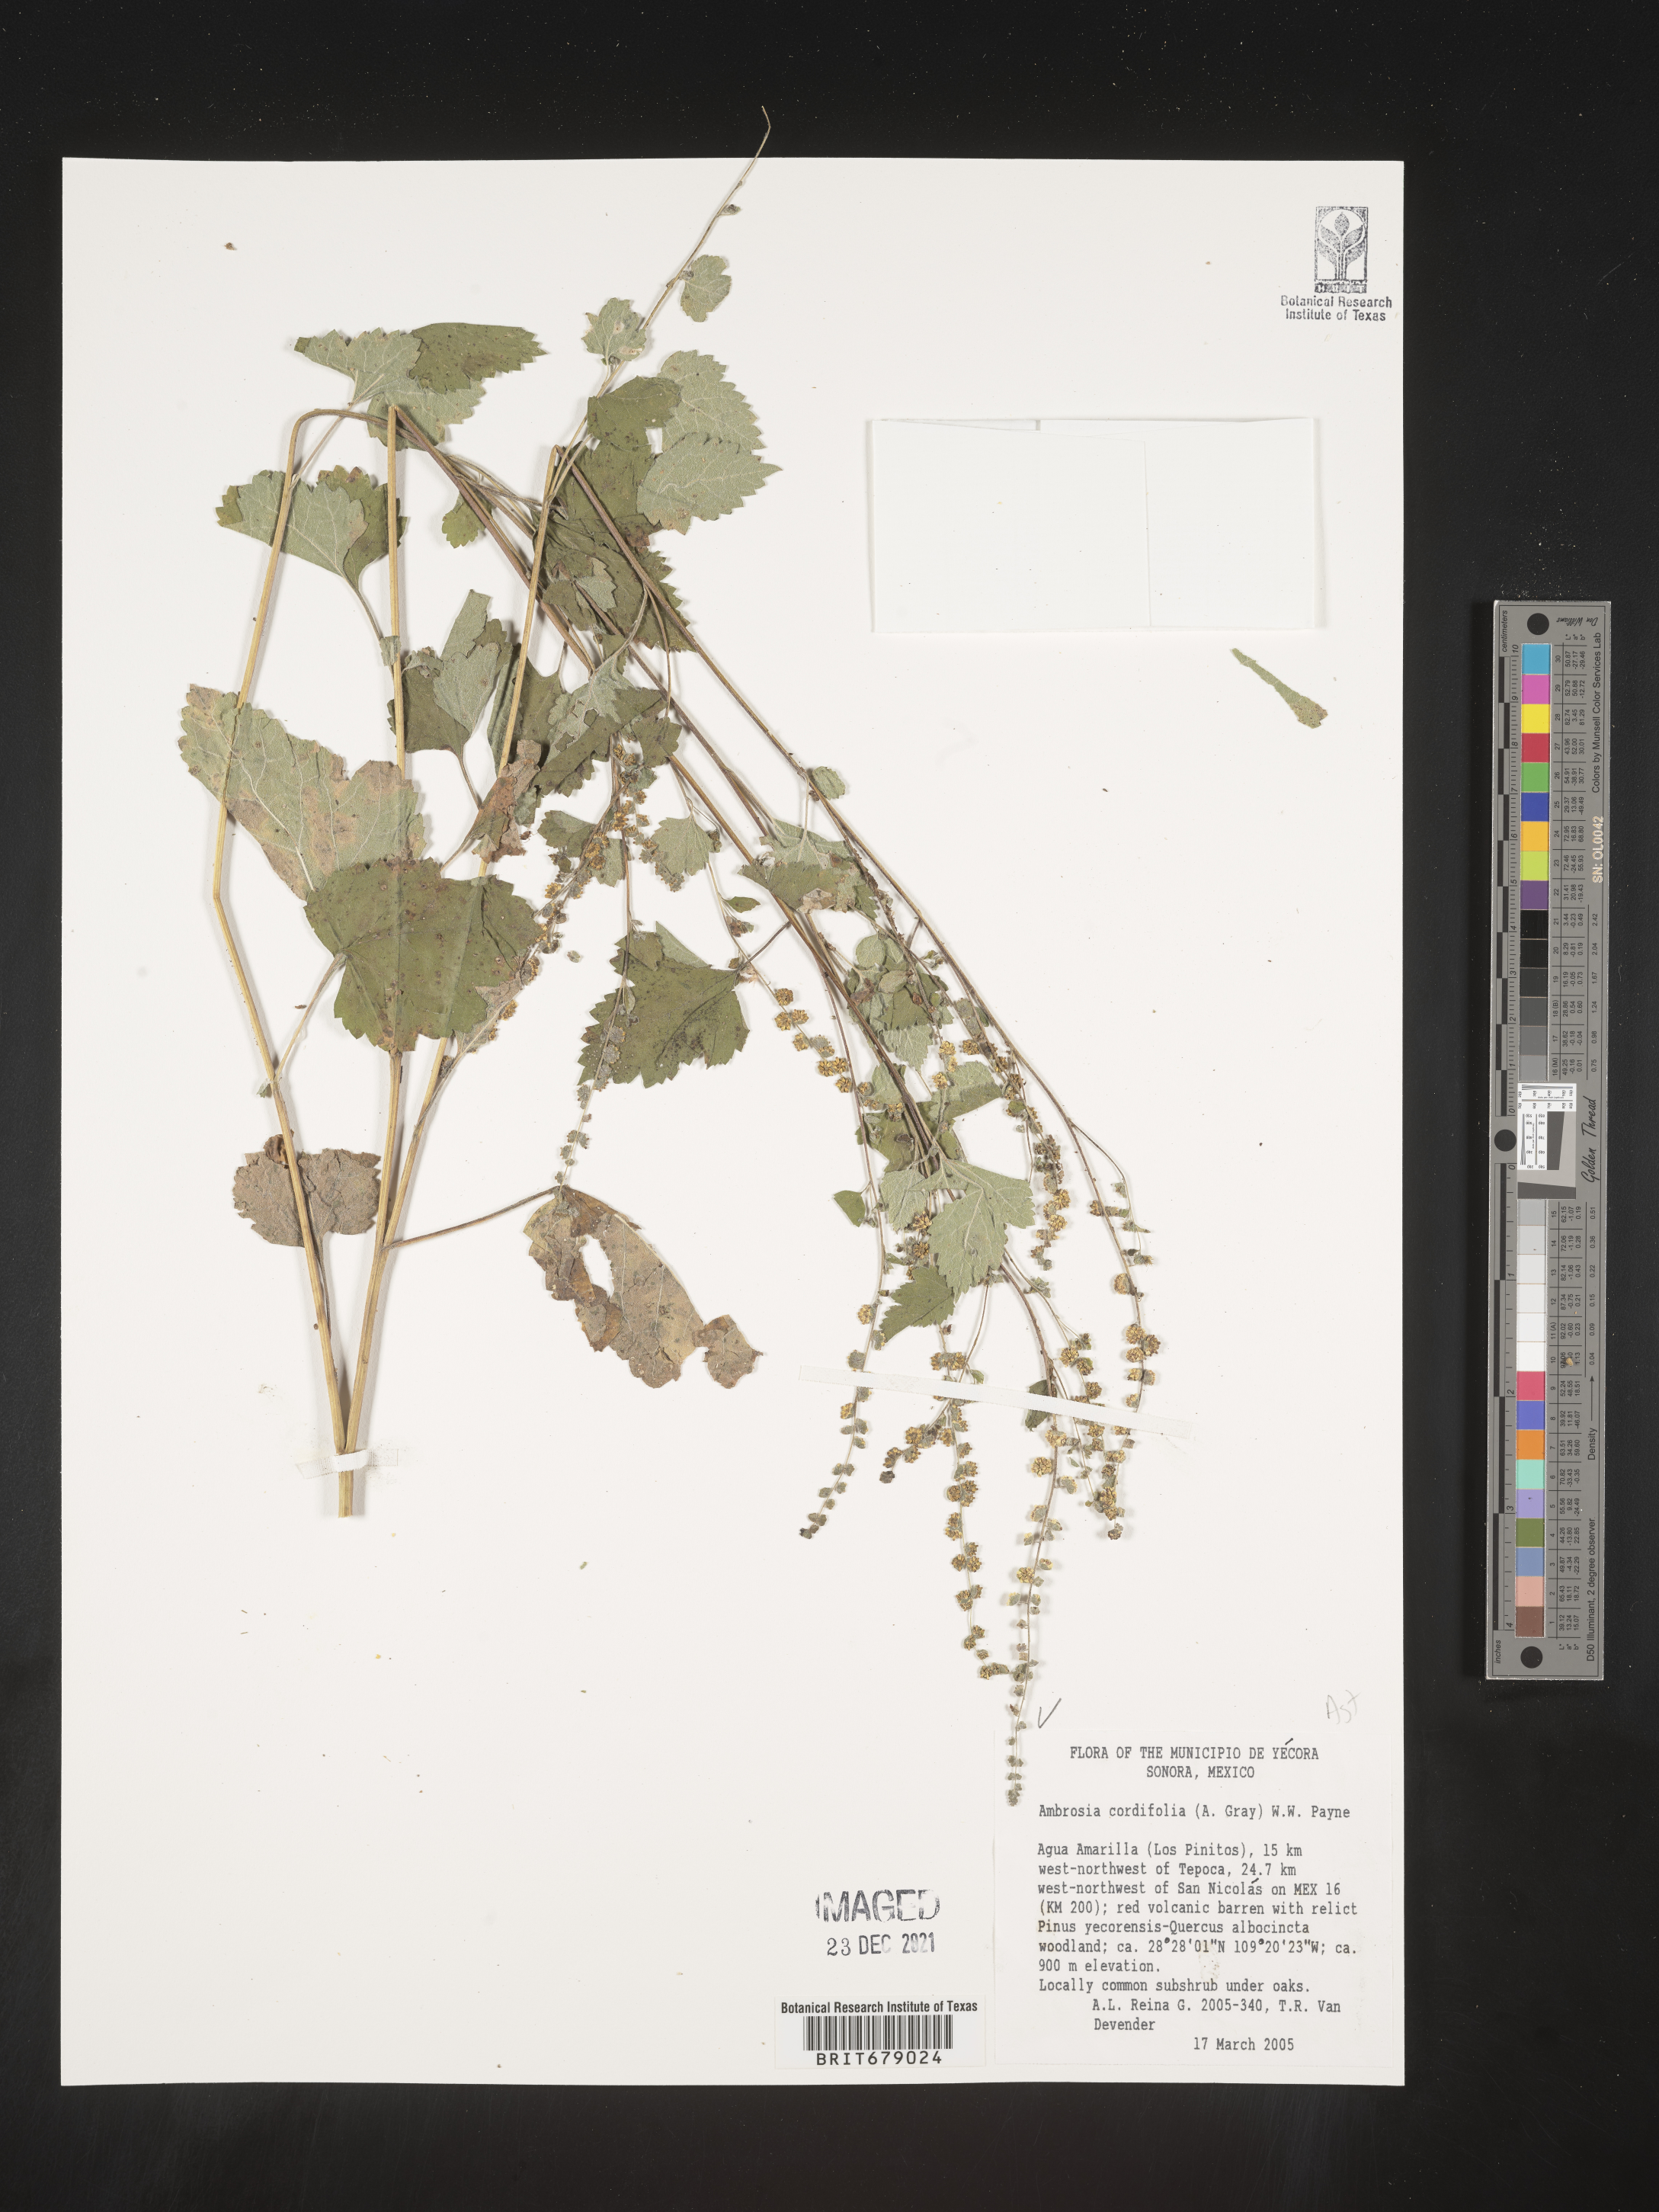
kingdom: Plantae
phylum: Tracheophyta
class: Magnoliopsida
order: Asterales
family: Asteraceae
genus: Ambrosia
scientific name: Ambrosia
